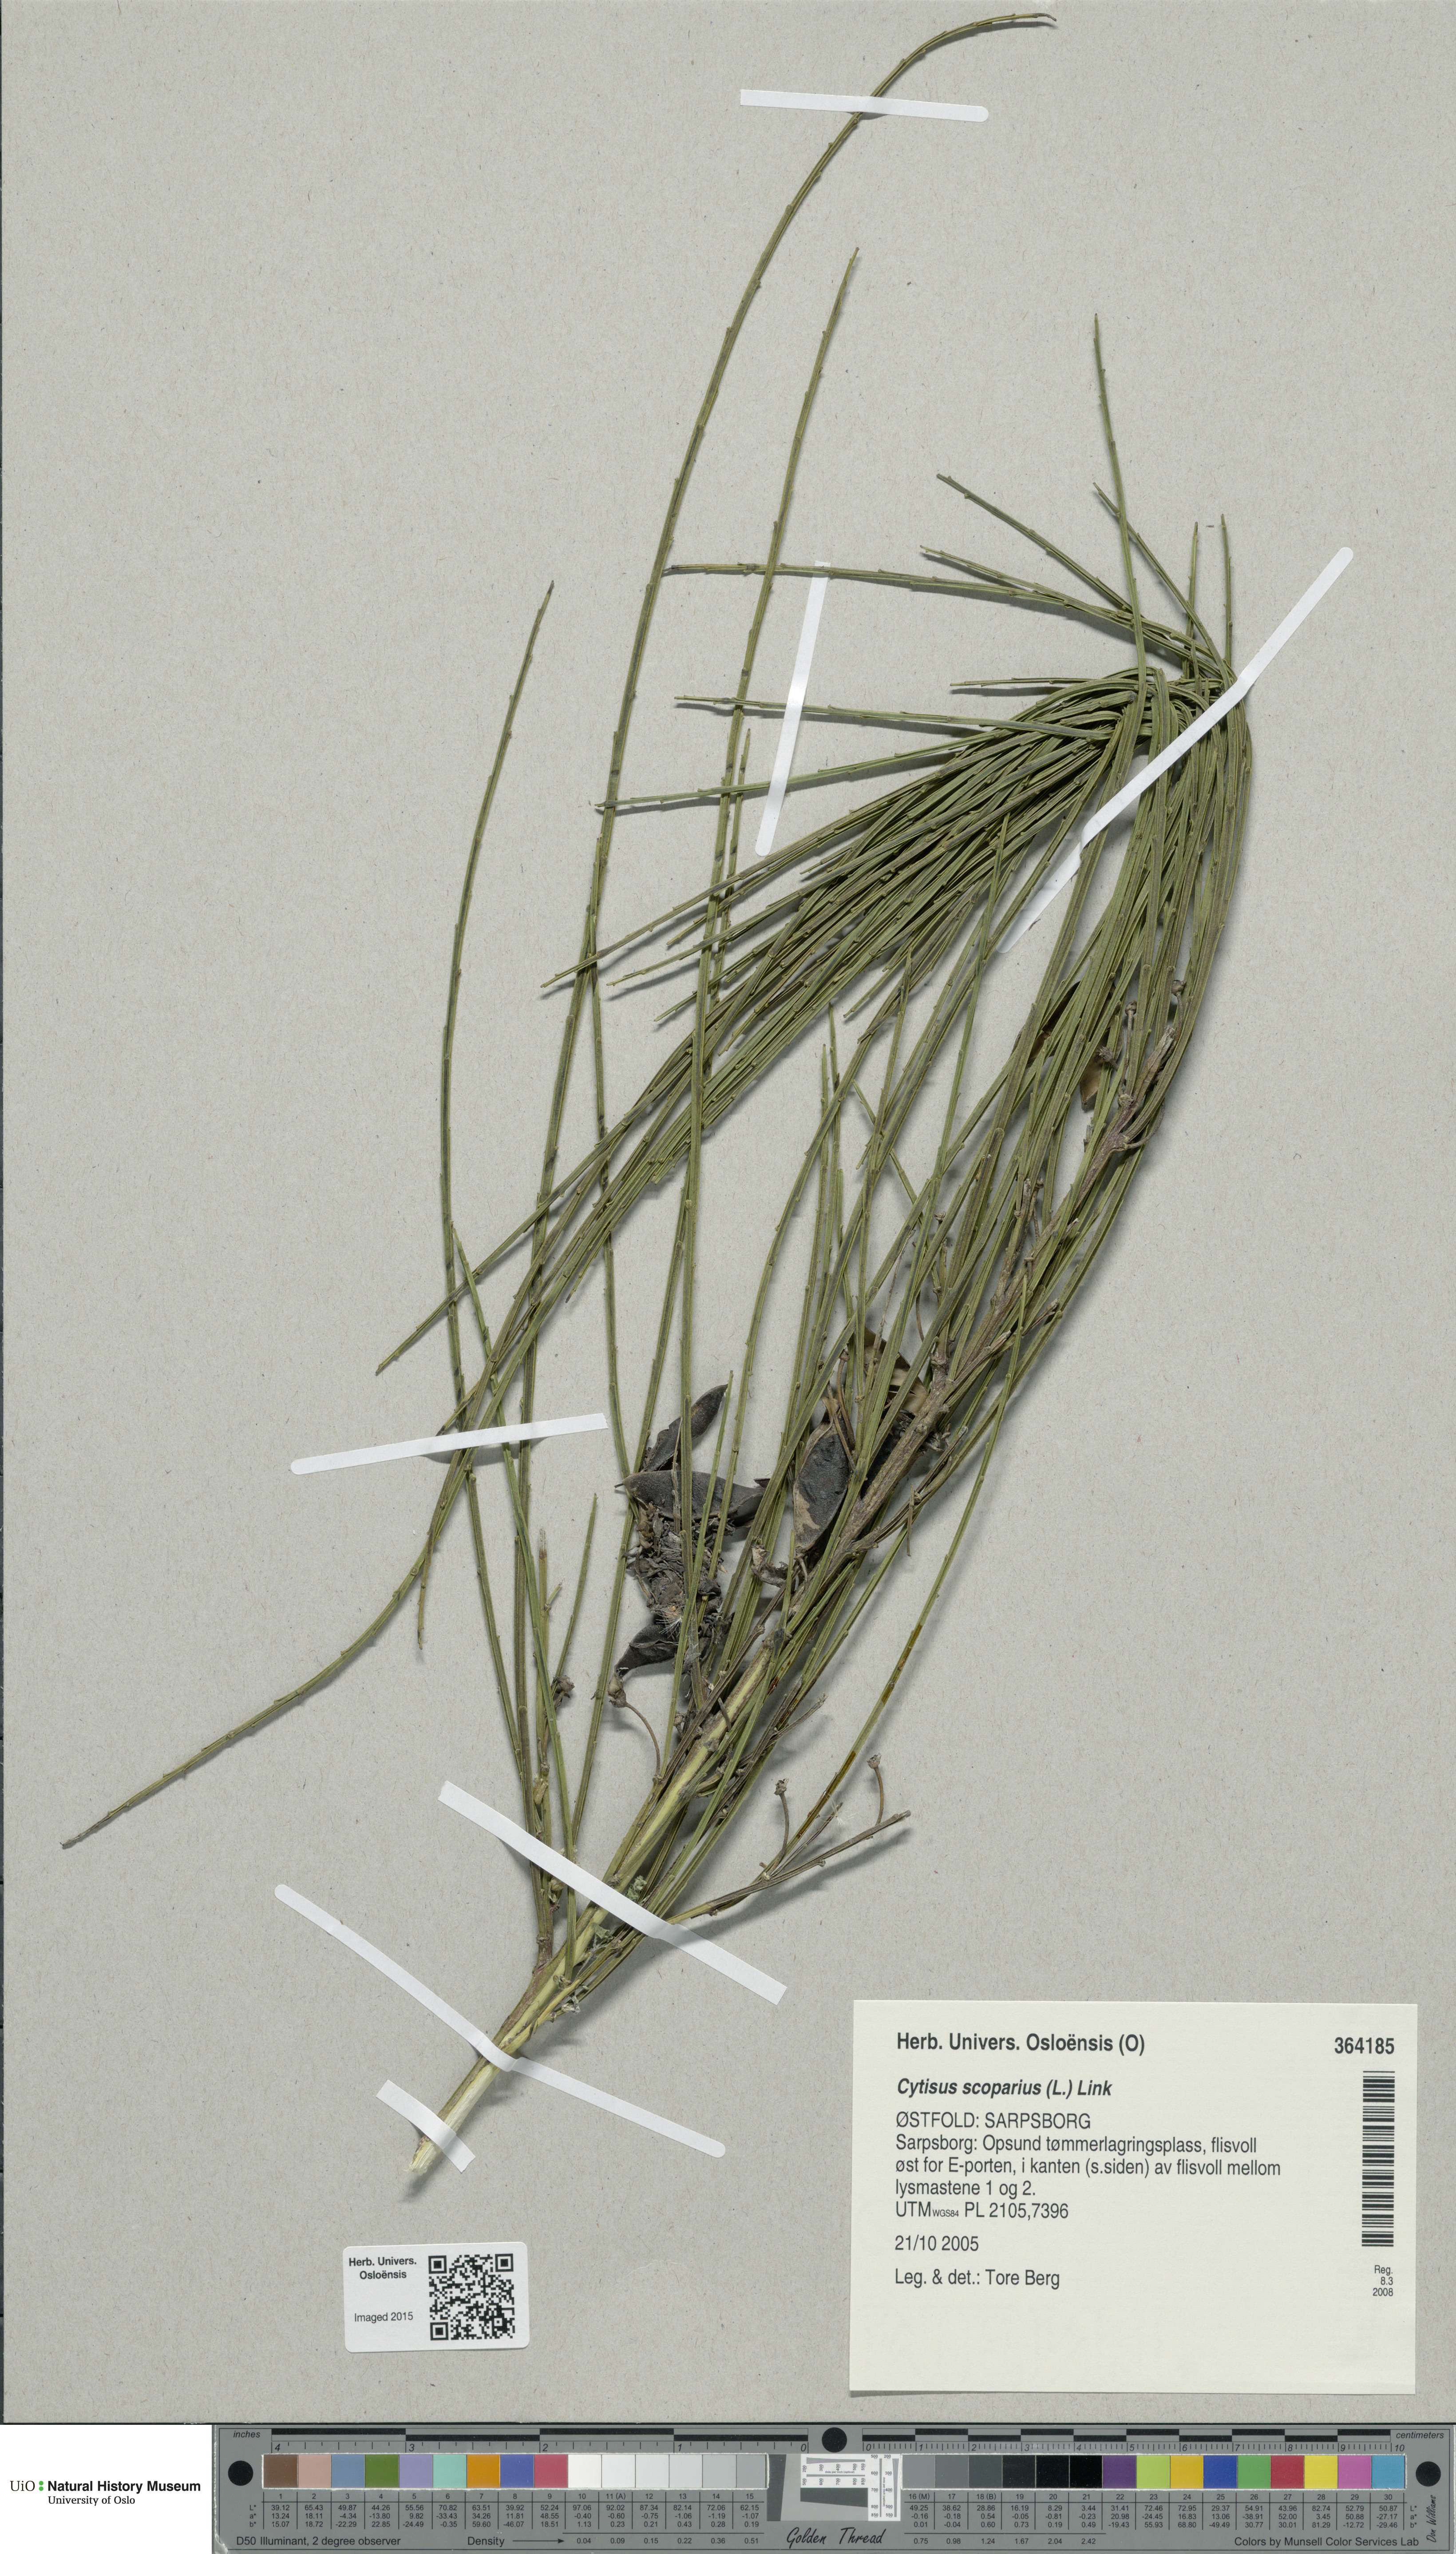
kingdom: Plantae
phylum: Tracheophyta
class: Magnoliopsida
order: Fabales
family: Fabaceae
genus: Cytisus
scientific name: Cytisus scoparius
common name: Scotch broom
